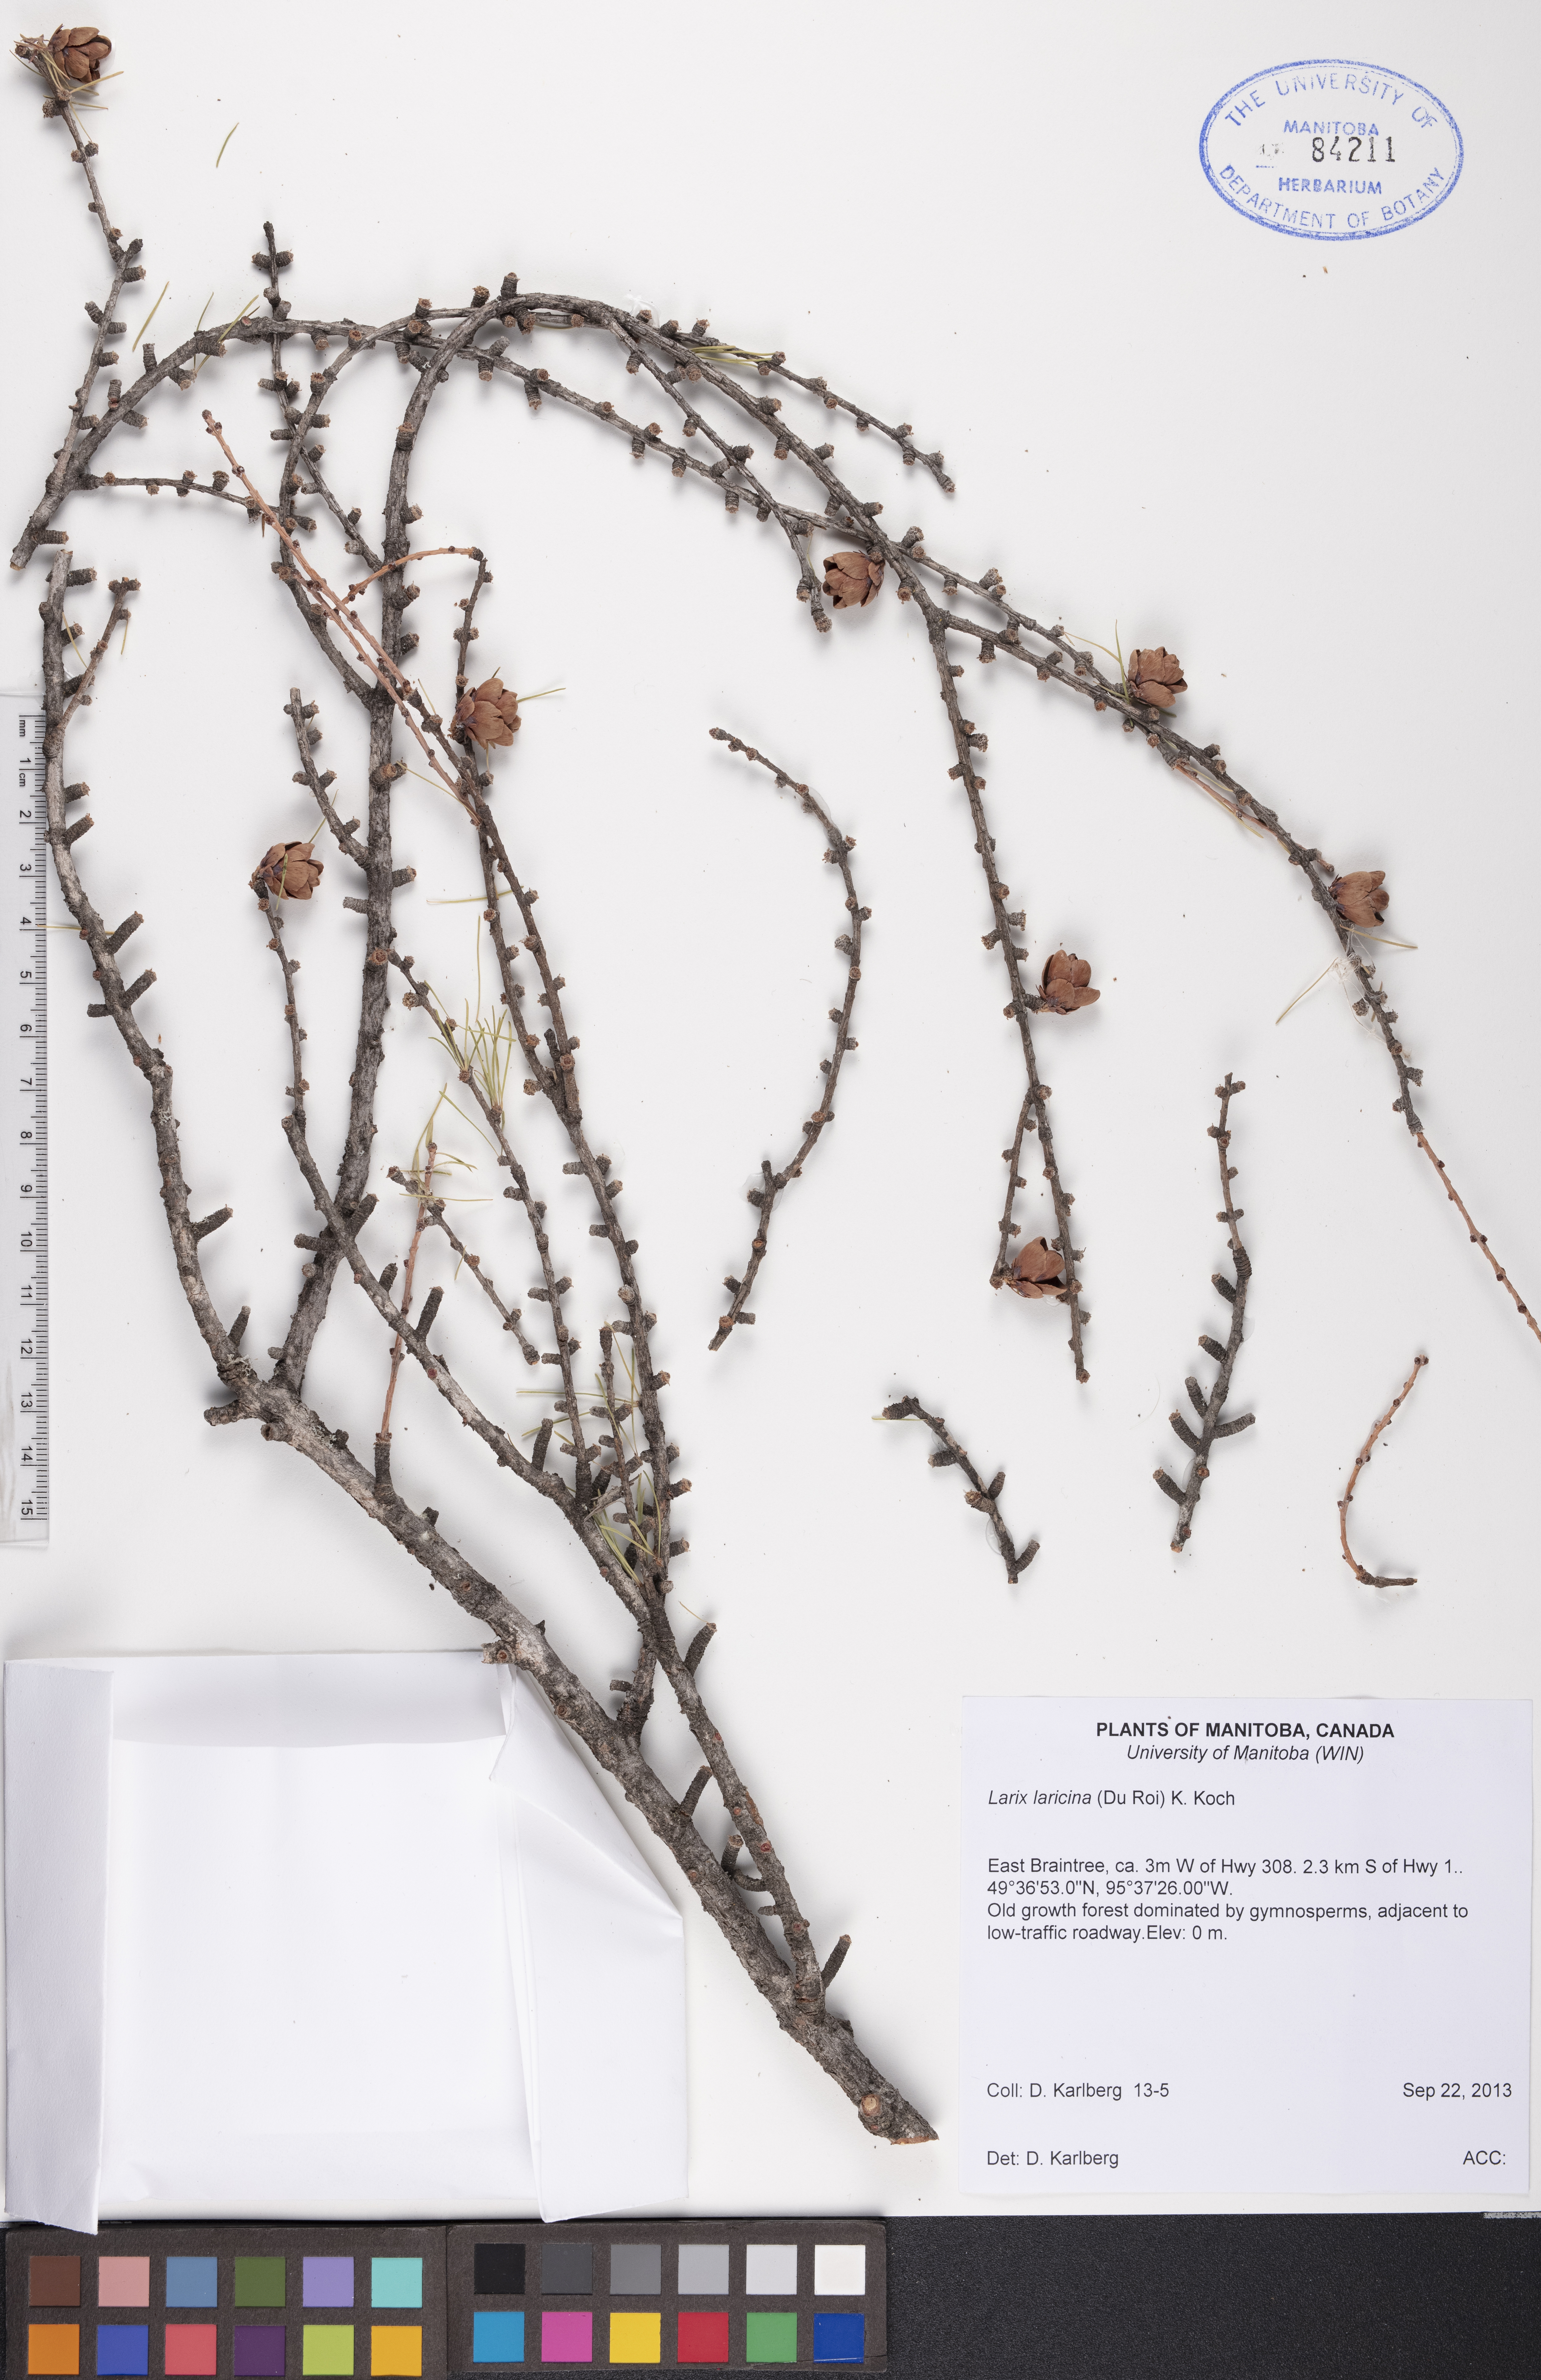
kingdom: Plantae
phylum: Tracheophyta
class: Pinopsida
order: Pinales
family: Pinaceae
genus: Larix
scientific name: Larix laricina
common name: American larch
